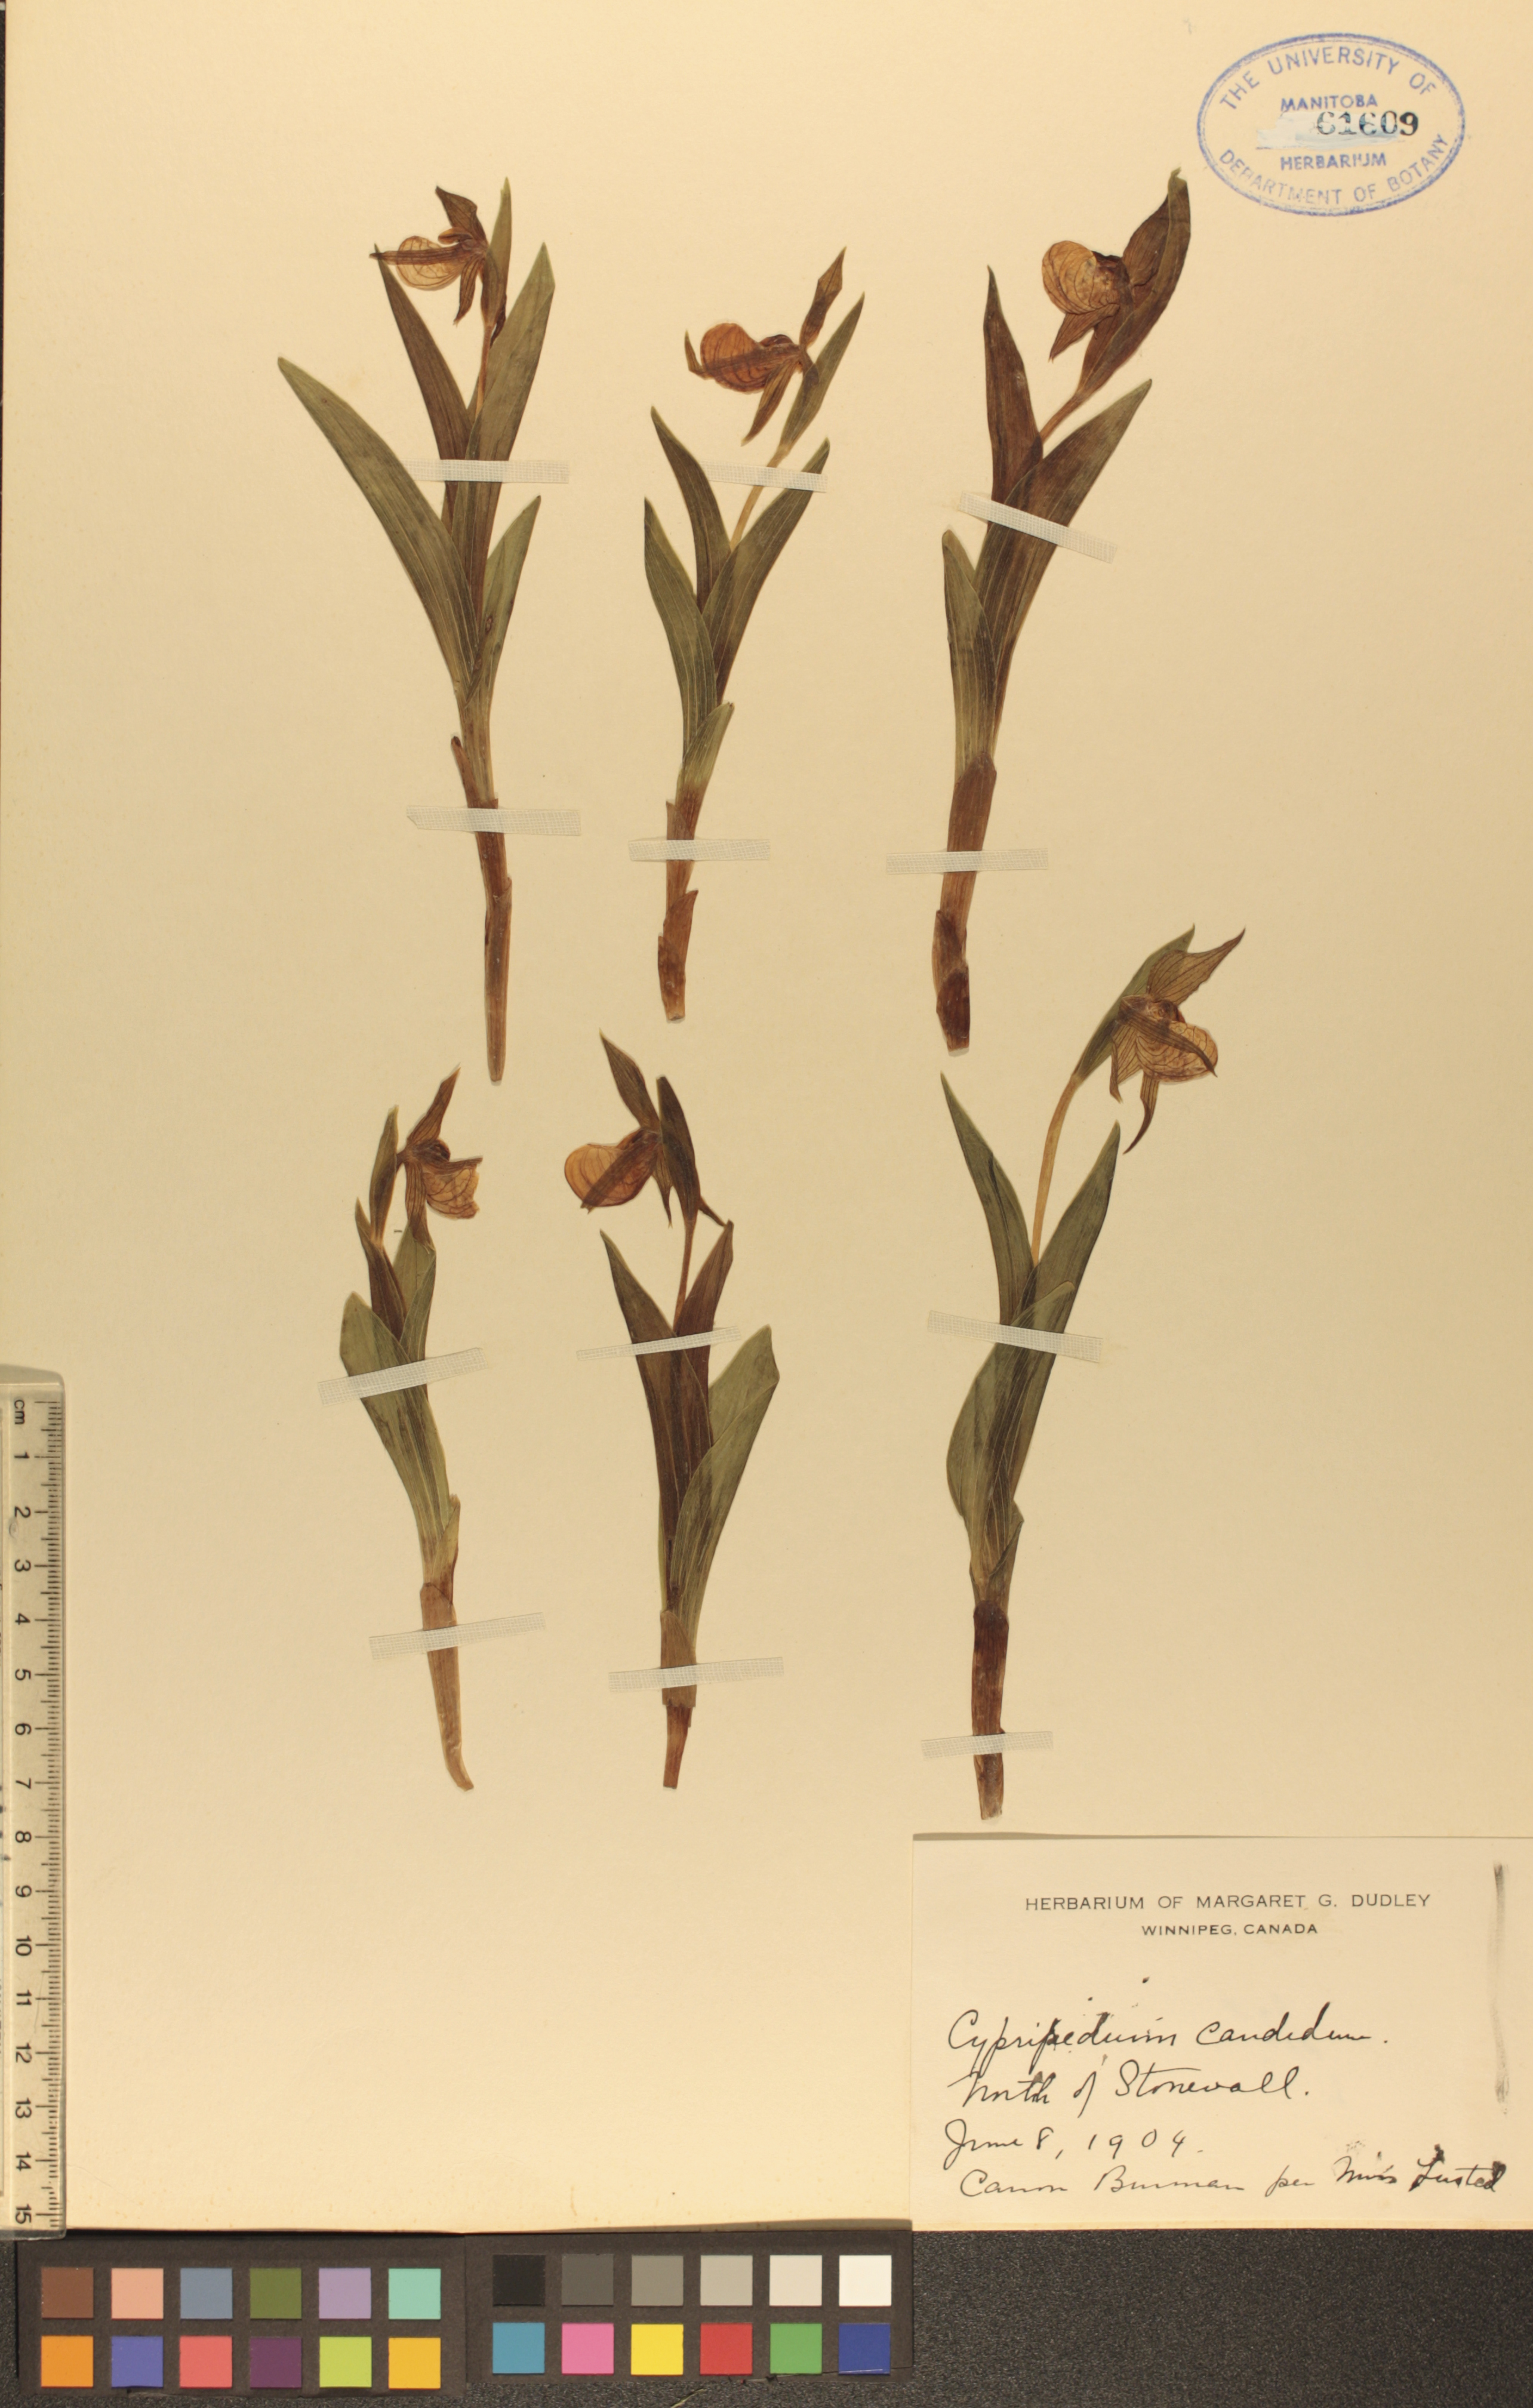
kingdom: Plantae
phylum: Tracheophyta
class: Liliopsida
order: Asparagales
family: Orchidaceae
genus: Cypripedium
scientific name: Cypripedium candidum
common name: White lady's-slipper
